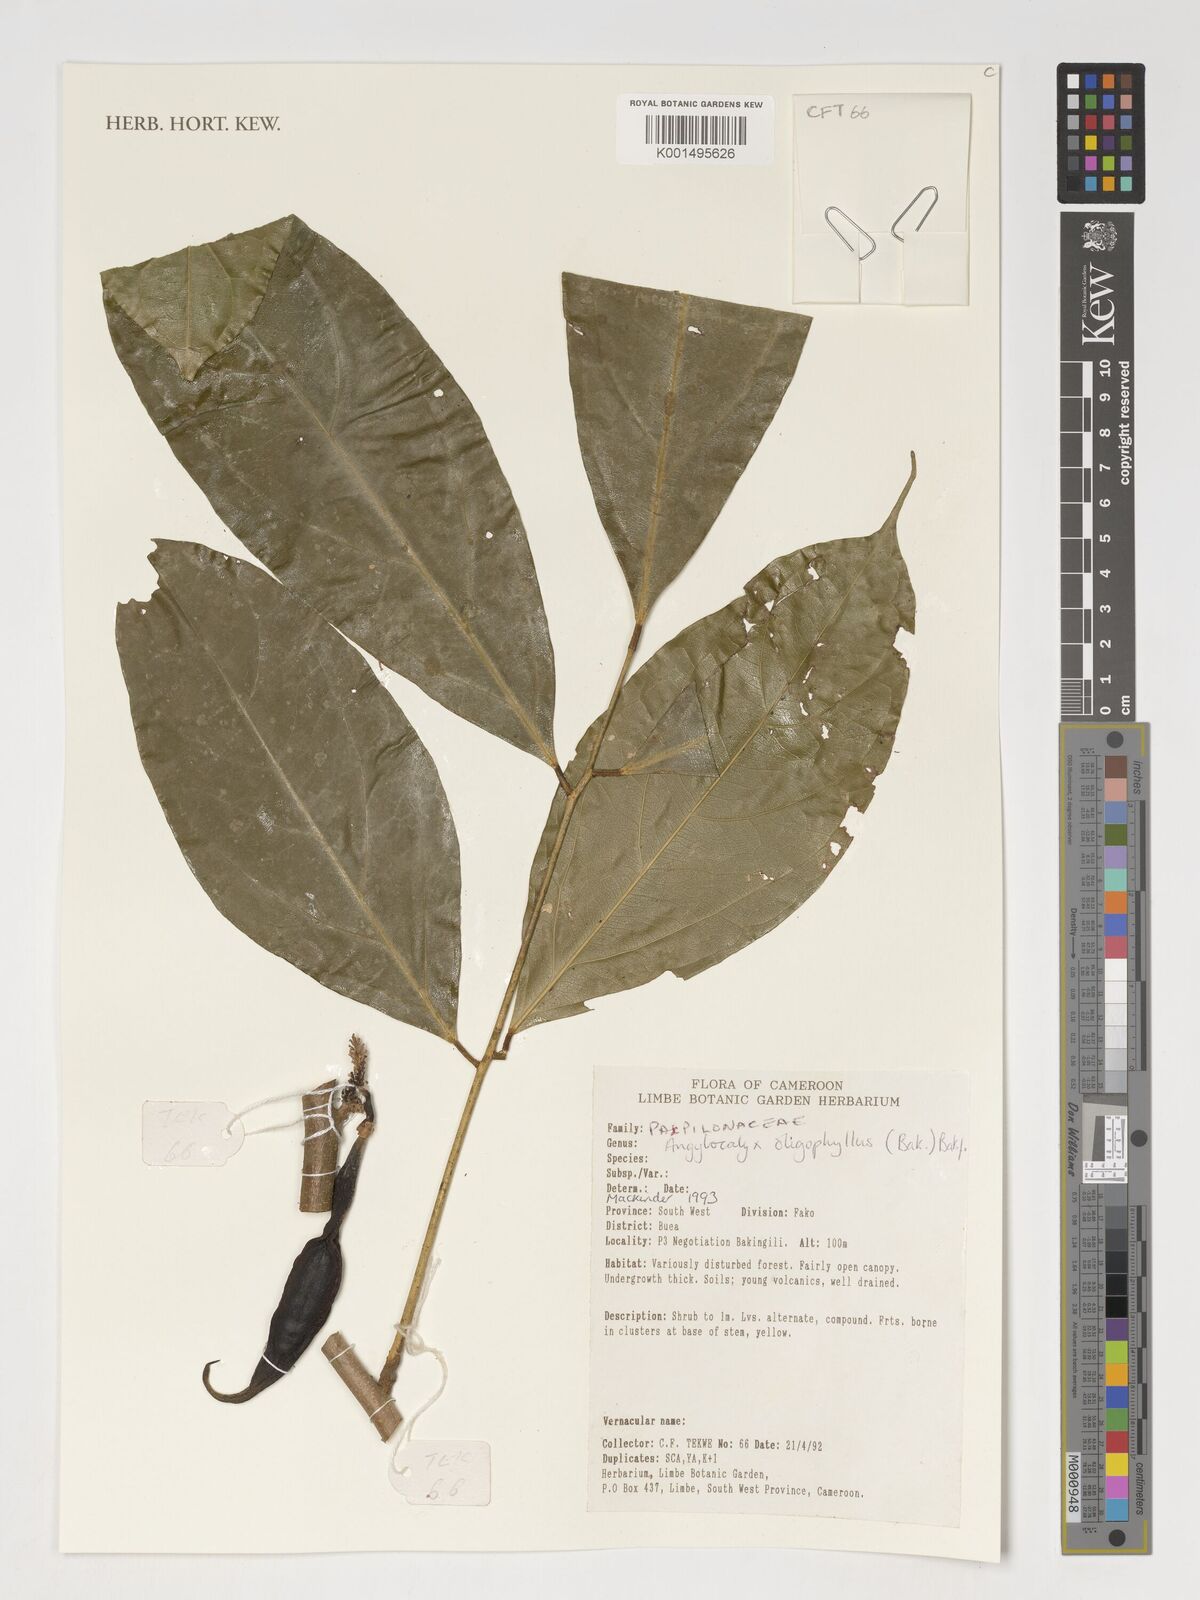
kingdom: Plantae
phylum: Tracheophyta
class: Magnoliopsida
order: Fabales
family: Fabaceae
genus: Angylocalyx
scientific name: Angylocalyx oligophyllus
